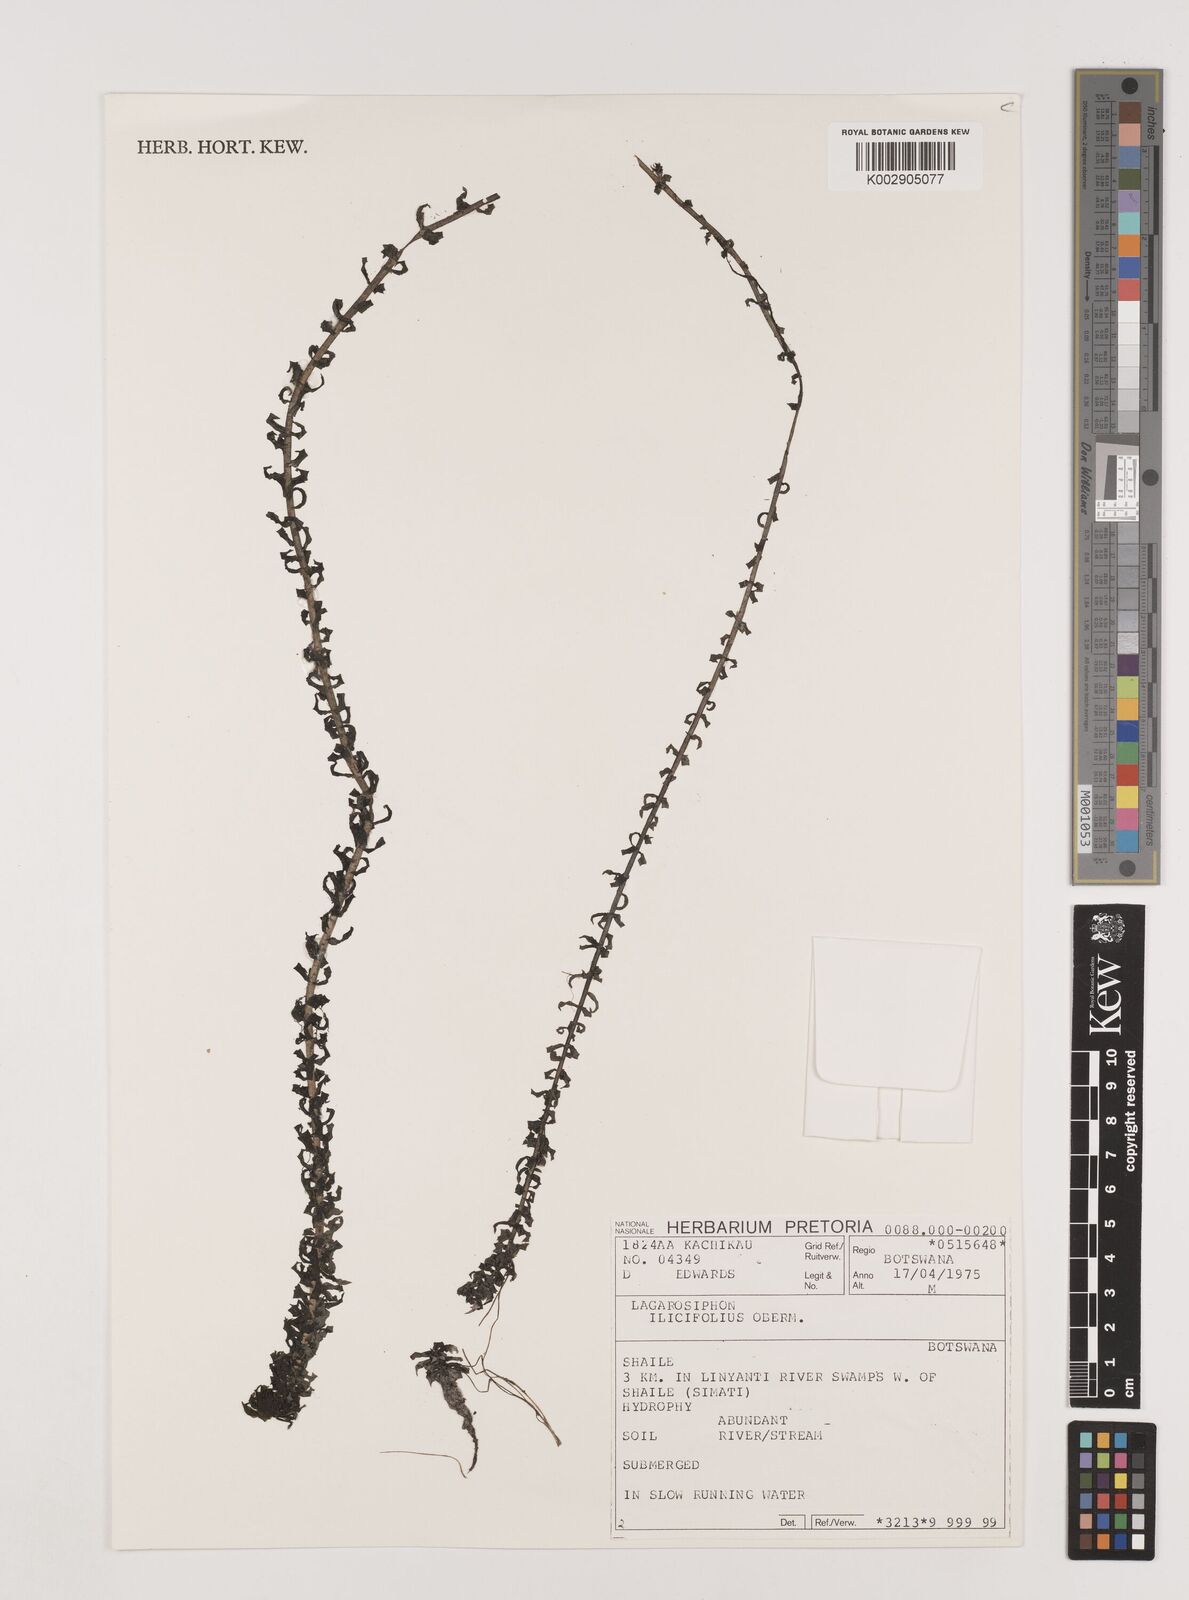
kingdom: Plantae
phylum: Tracheophyta
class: Liliopsida
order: Alismatales
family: Hydrocharitaceae
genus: Lagarosiphon
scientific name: Lagarosiphon ilicifolius
